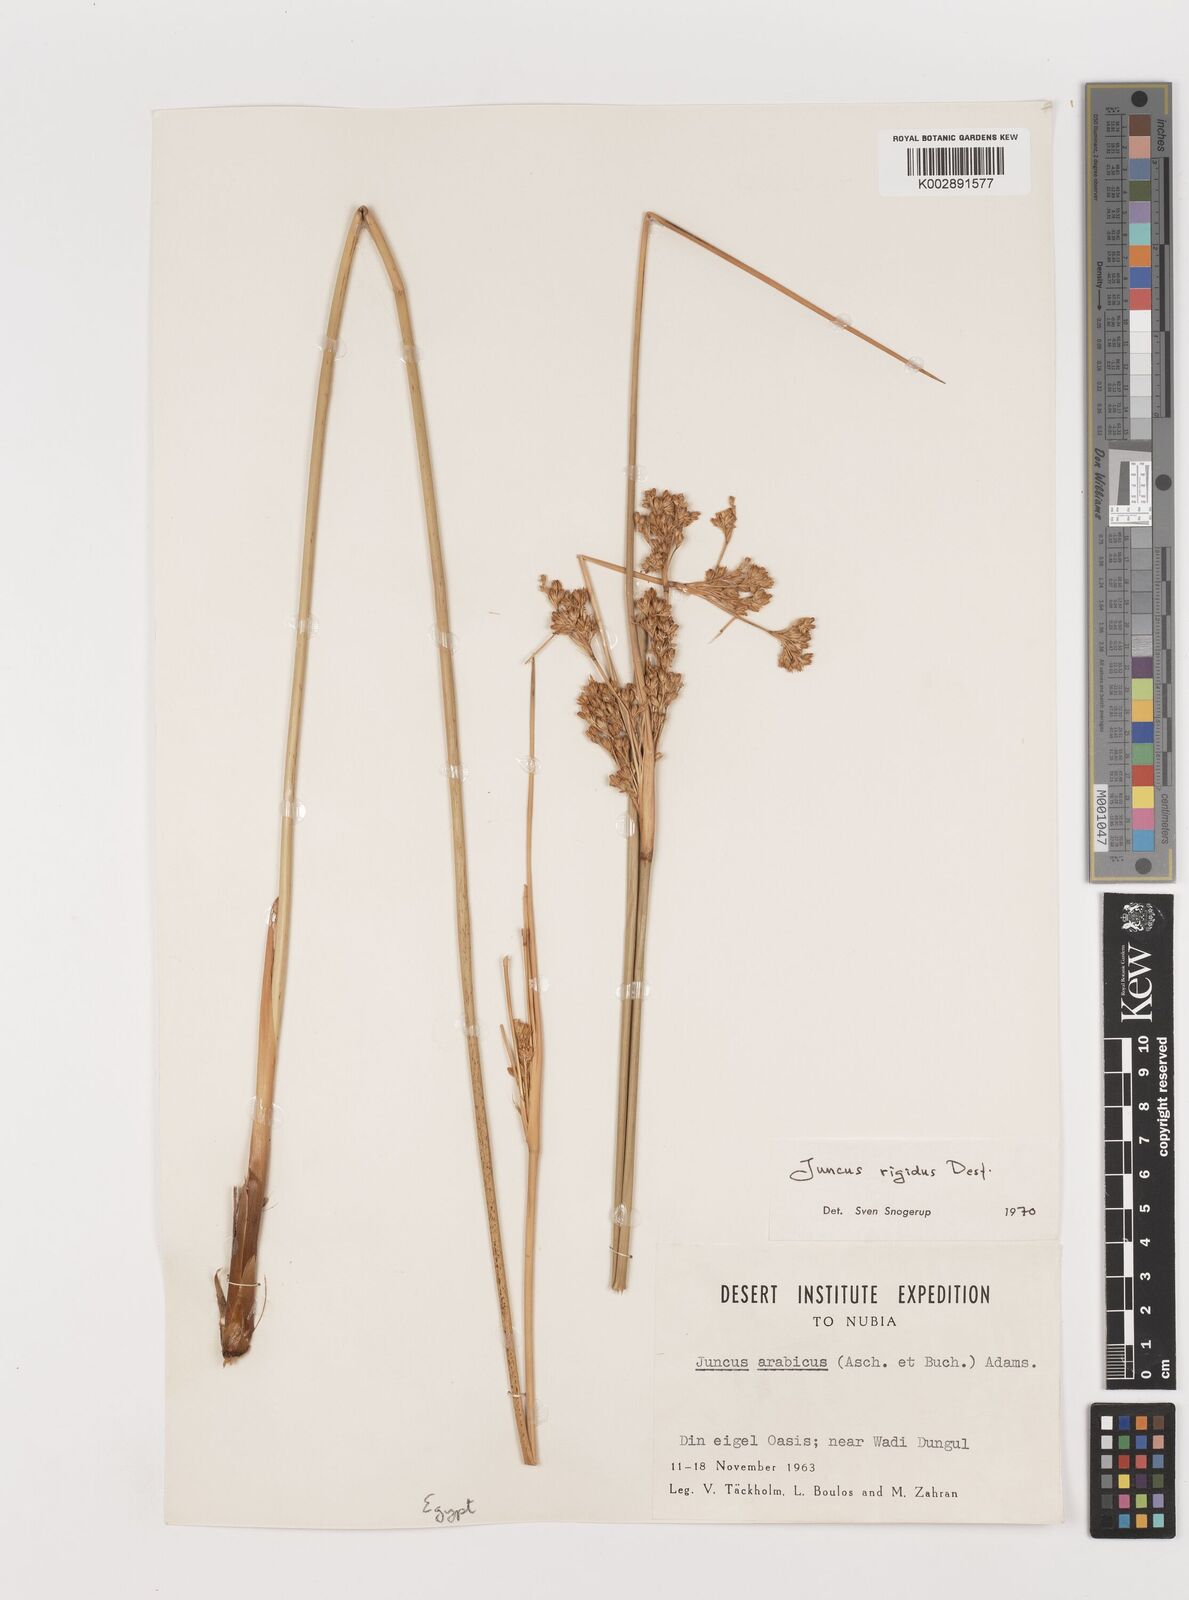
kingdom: Plantae
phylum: Tracheophyta
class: Liliopsida
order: Poales
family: Juncaceae
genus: Juncus
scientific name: Juncus rigidus
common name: Hard sea rush
